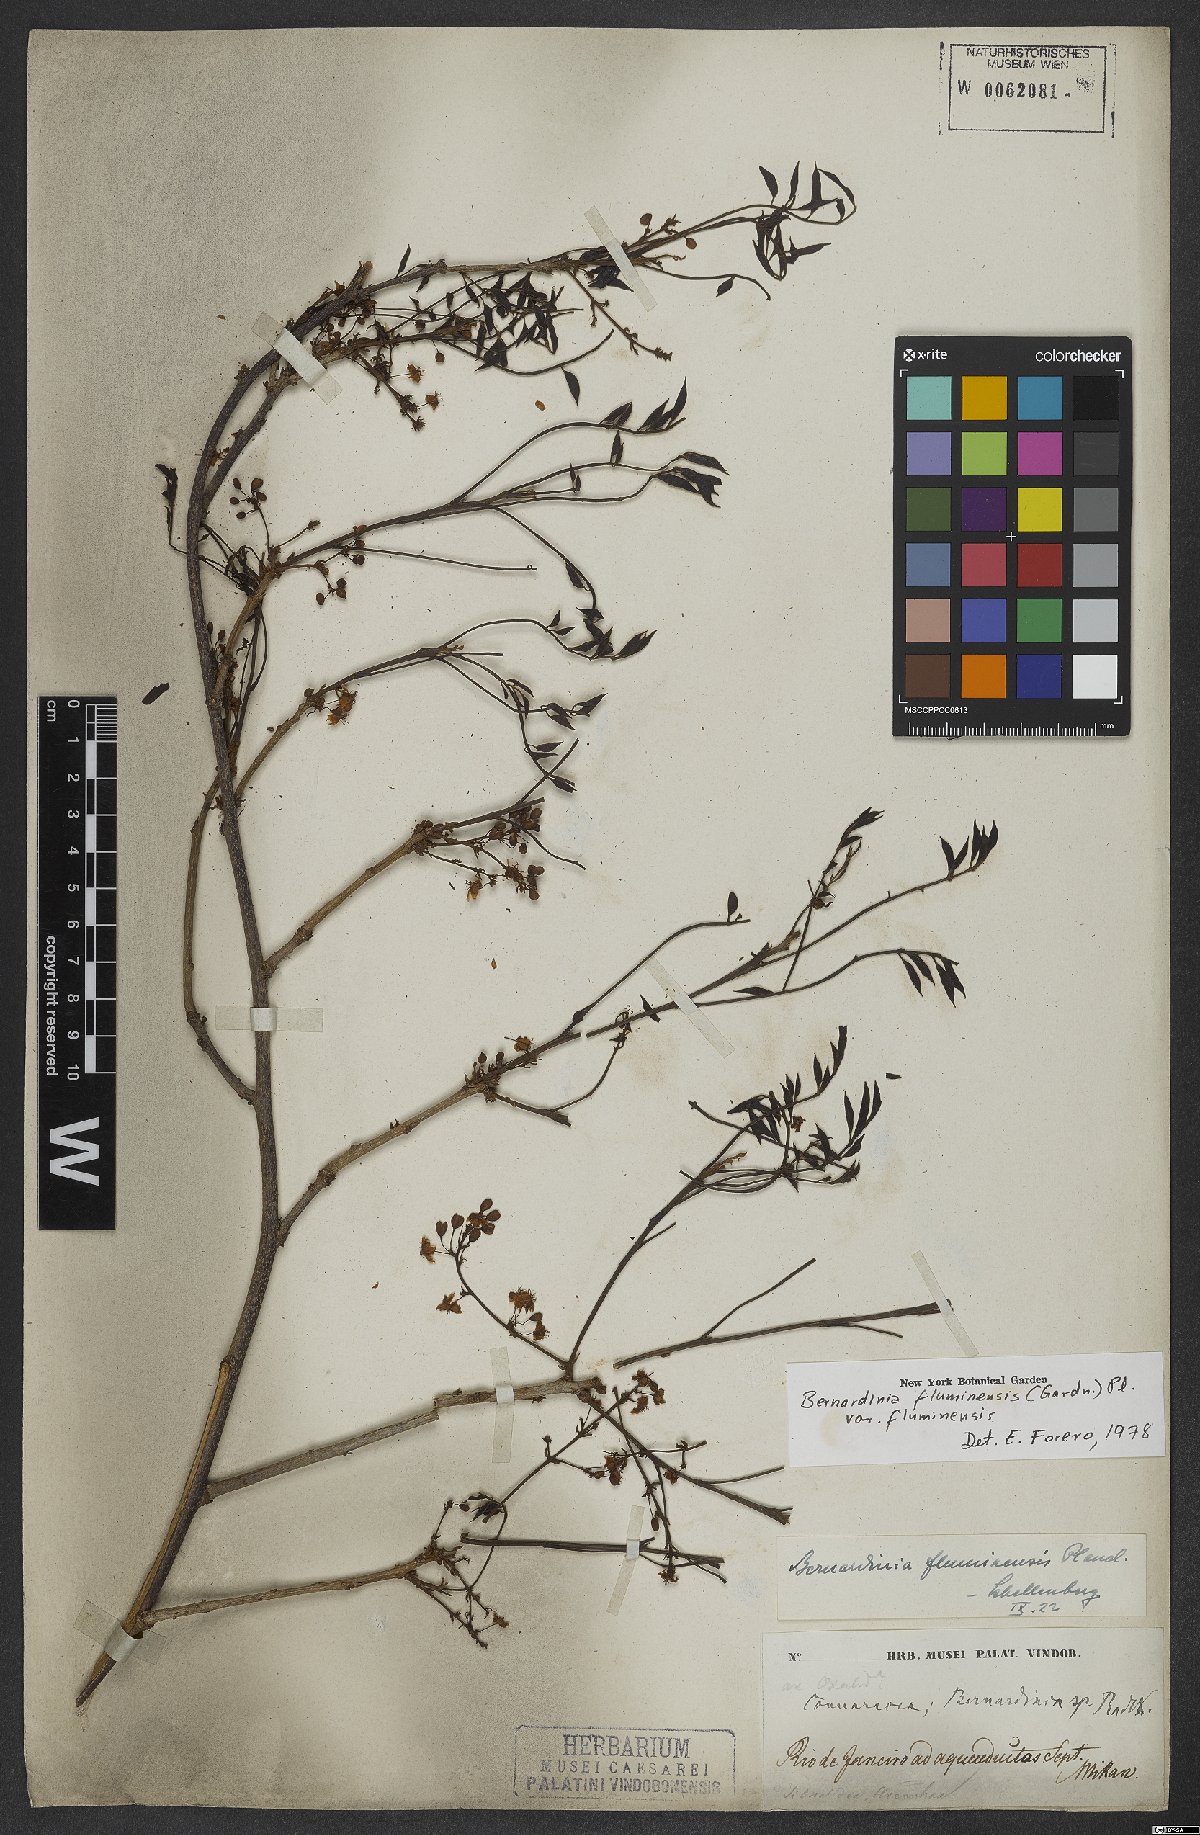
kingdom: Plantae
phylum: Tracheophyta
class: Magnoliopsida
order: Oxalidales
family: Connaraceae
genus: Rourea
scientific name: Rourea fluminensis
